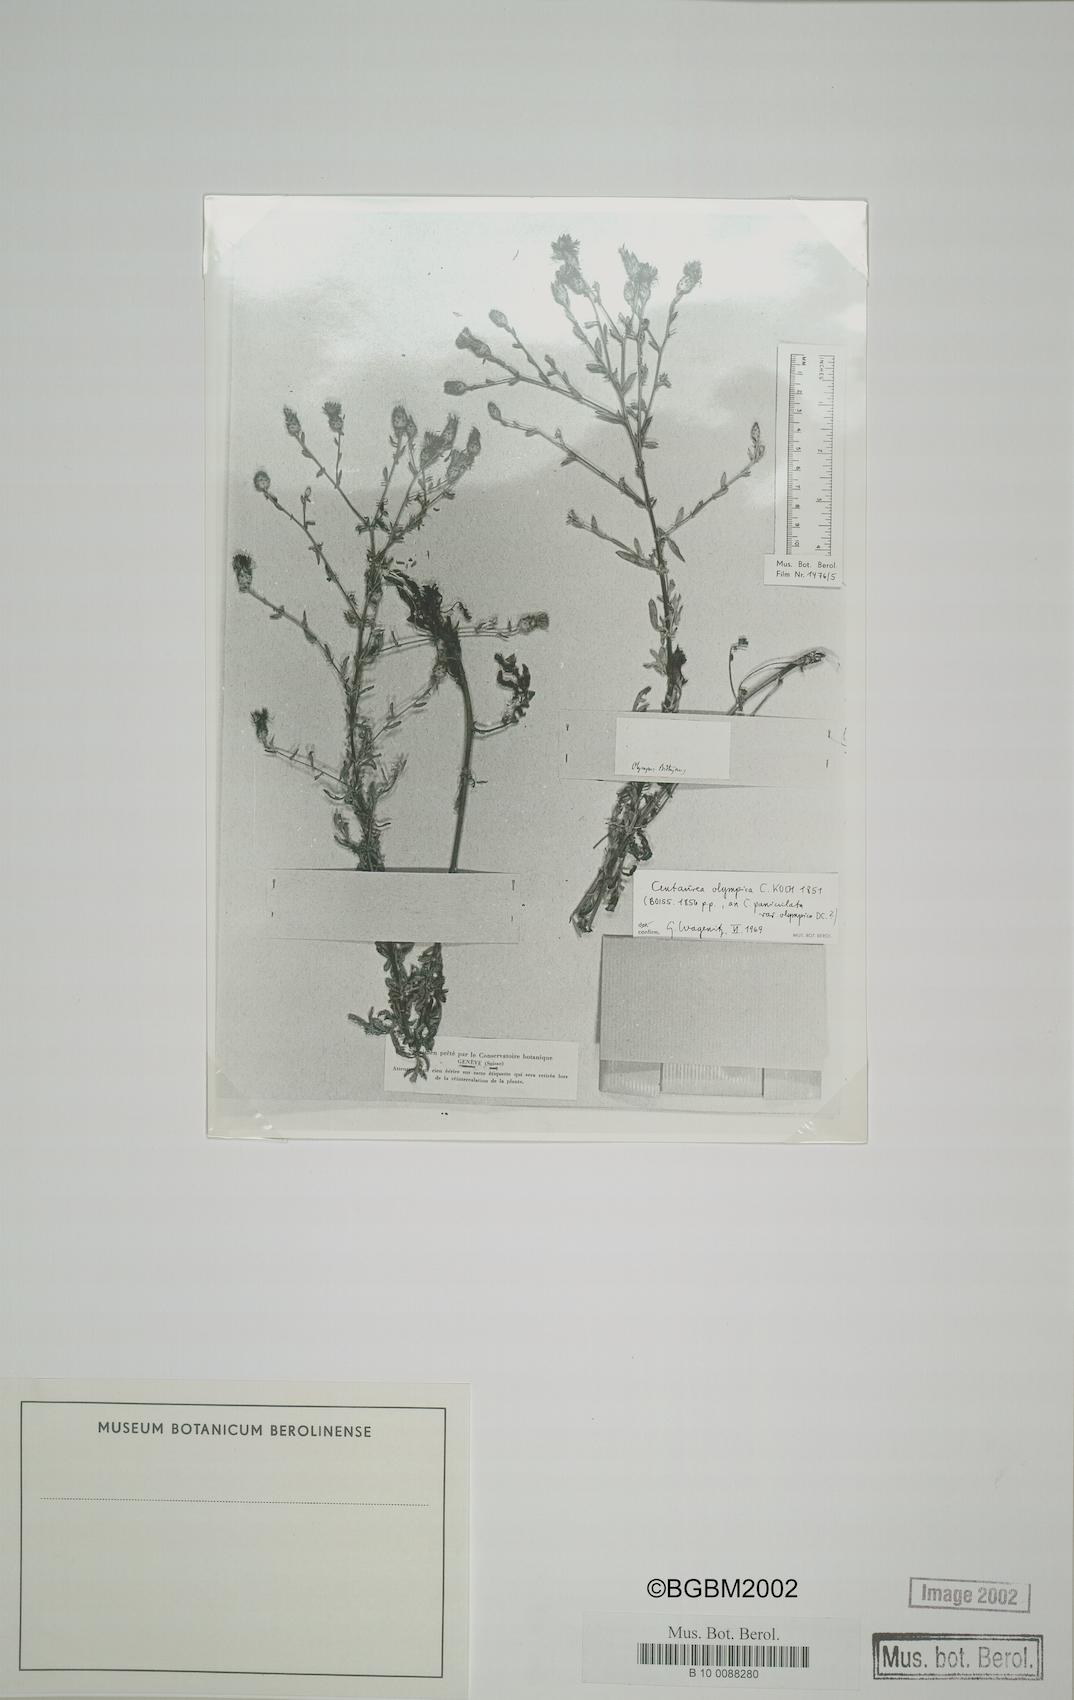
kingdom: Plantae
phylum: Tracheophyta
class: Magnoliopsida
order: Asterales
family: Asteraceae
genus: Centaurea
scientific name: Centaurea olympica
